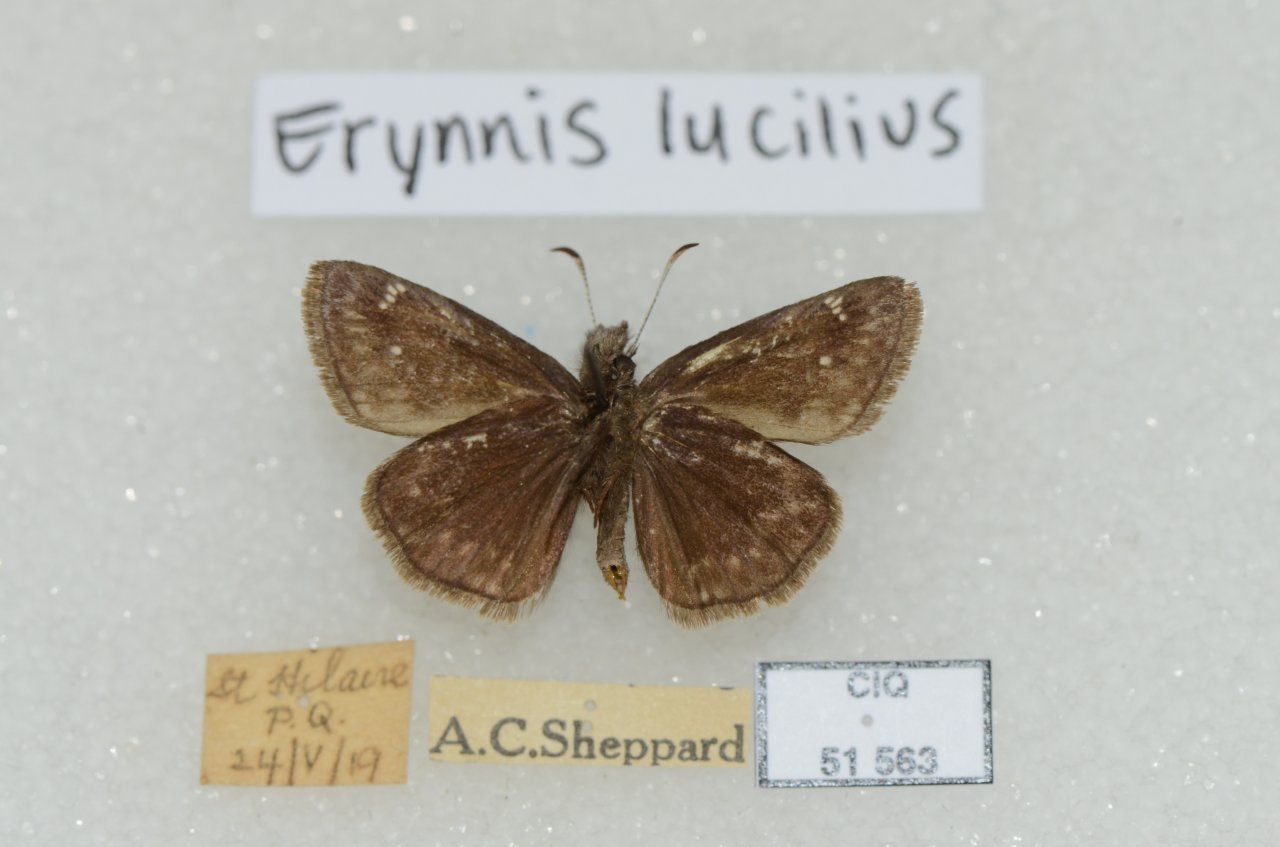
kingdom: Animalia
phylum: Arthropoda
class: Insecta
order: Lepidoptera
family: Hesperiidae
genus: Gesta
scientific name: Gesta
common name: Columbine Duskywing
